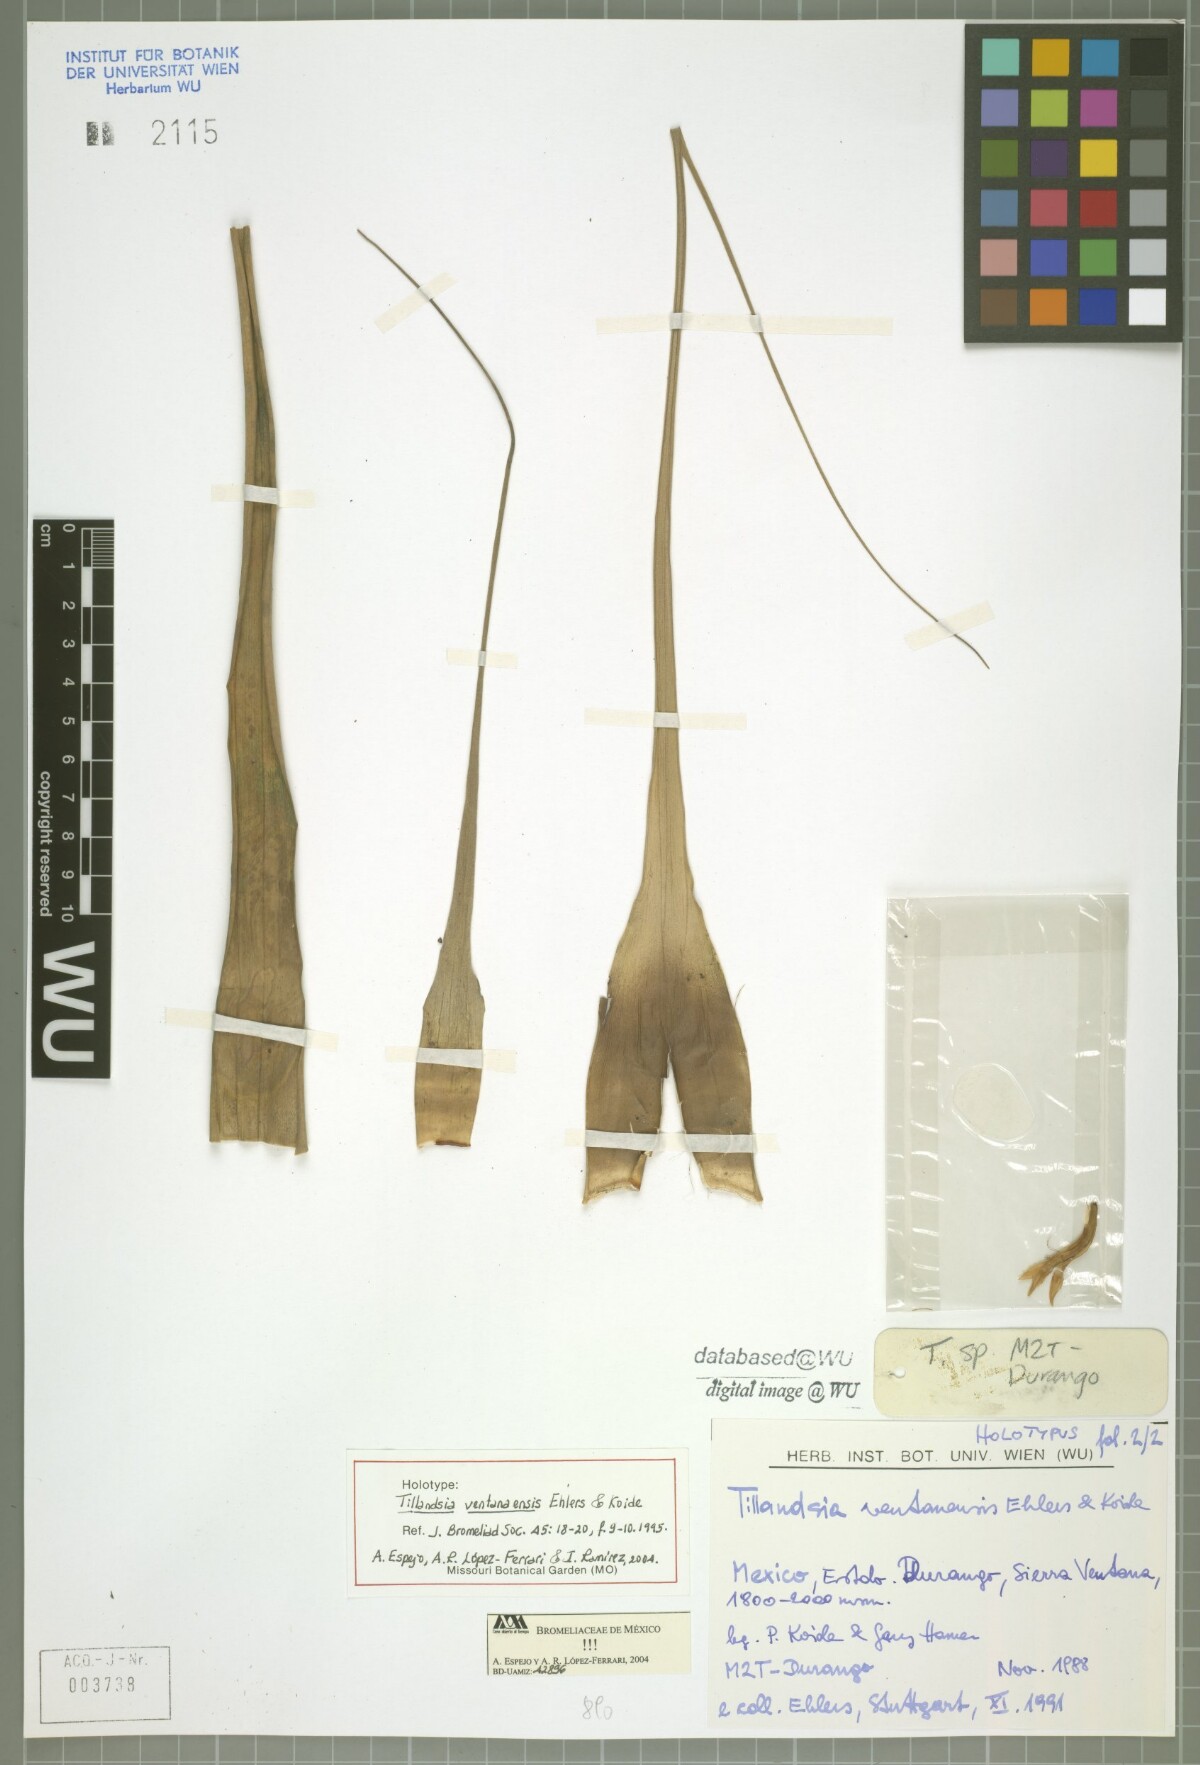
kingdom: Plantae
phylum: Tracheophyta
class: Liliopsida
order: Poales
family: Bromeliaceae
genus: Tillandsia
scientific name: Tillandsia ventanaensis
